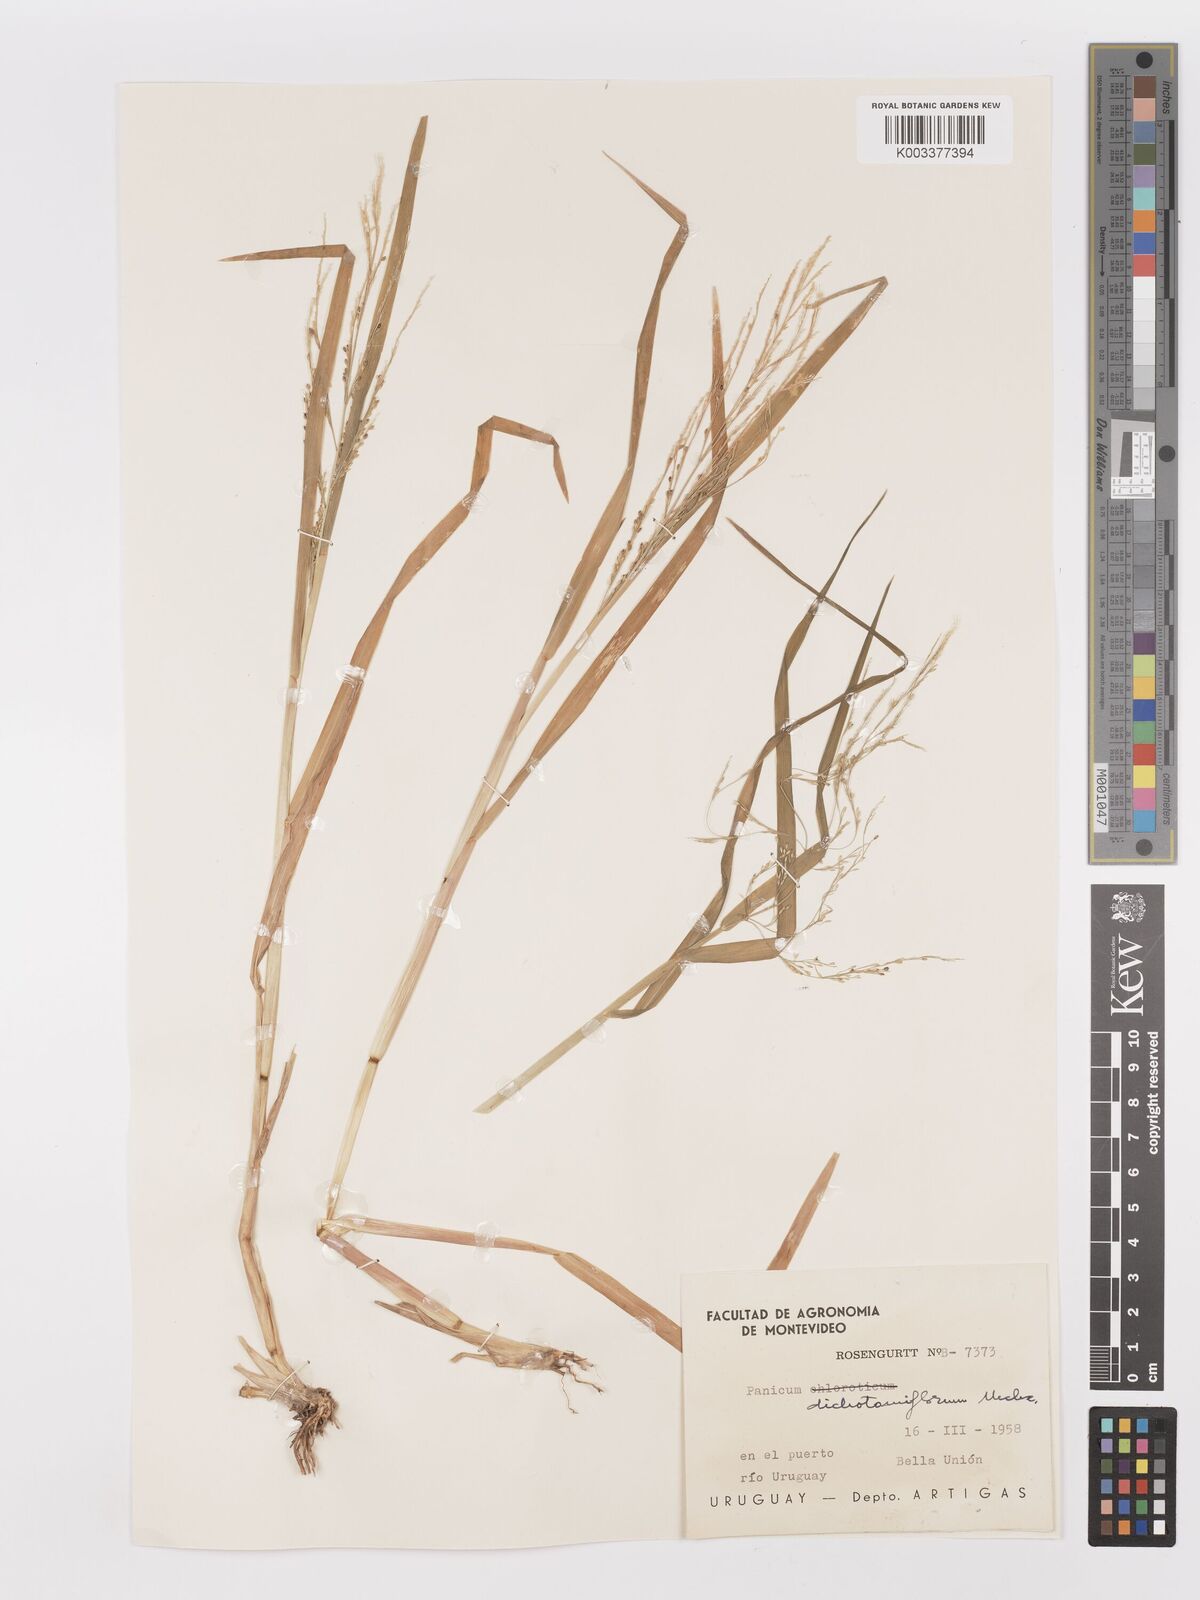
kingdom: Plantae
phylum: Tracheophyta
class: Liliopsida
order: Poales
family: Poaceae
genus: Panicum
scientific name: Panicum dichotomiflorum
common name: Autumn millet
